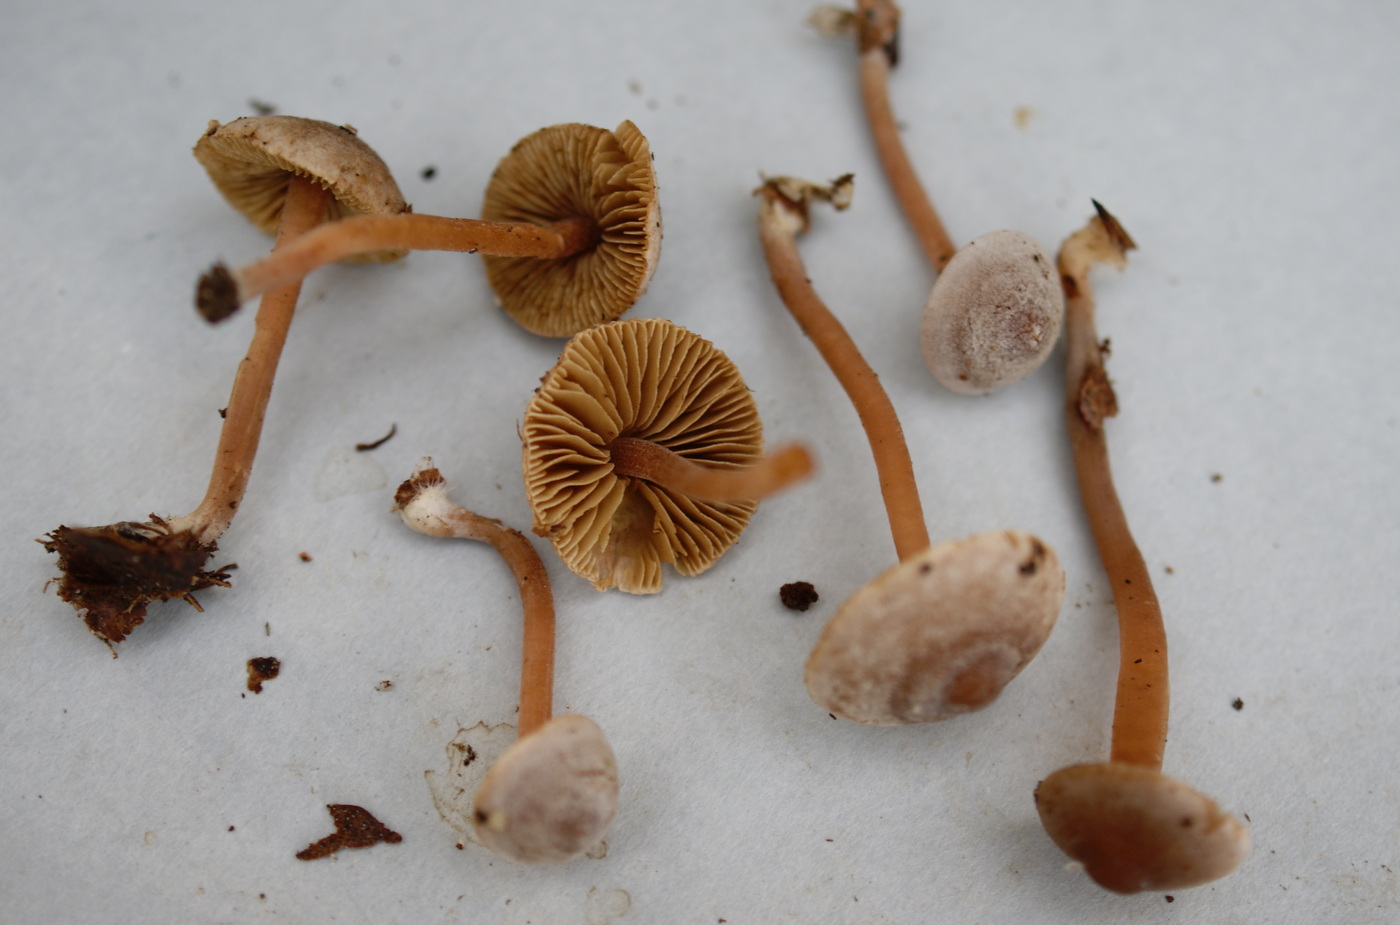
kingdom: Fungi
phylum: Basidiomycota
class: Agaricomycetes
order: Agaricales
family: Inocybaceae
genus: Inocybe
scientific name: Inocybe petiginosa
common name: liden trævlhat
